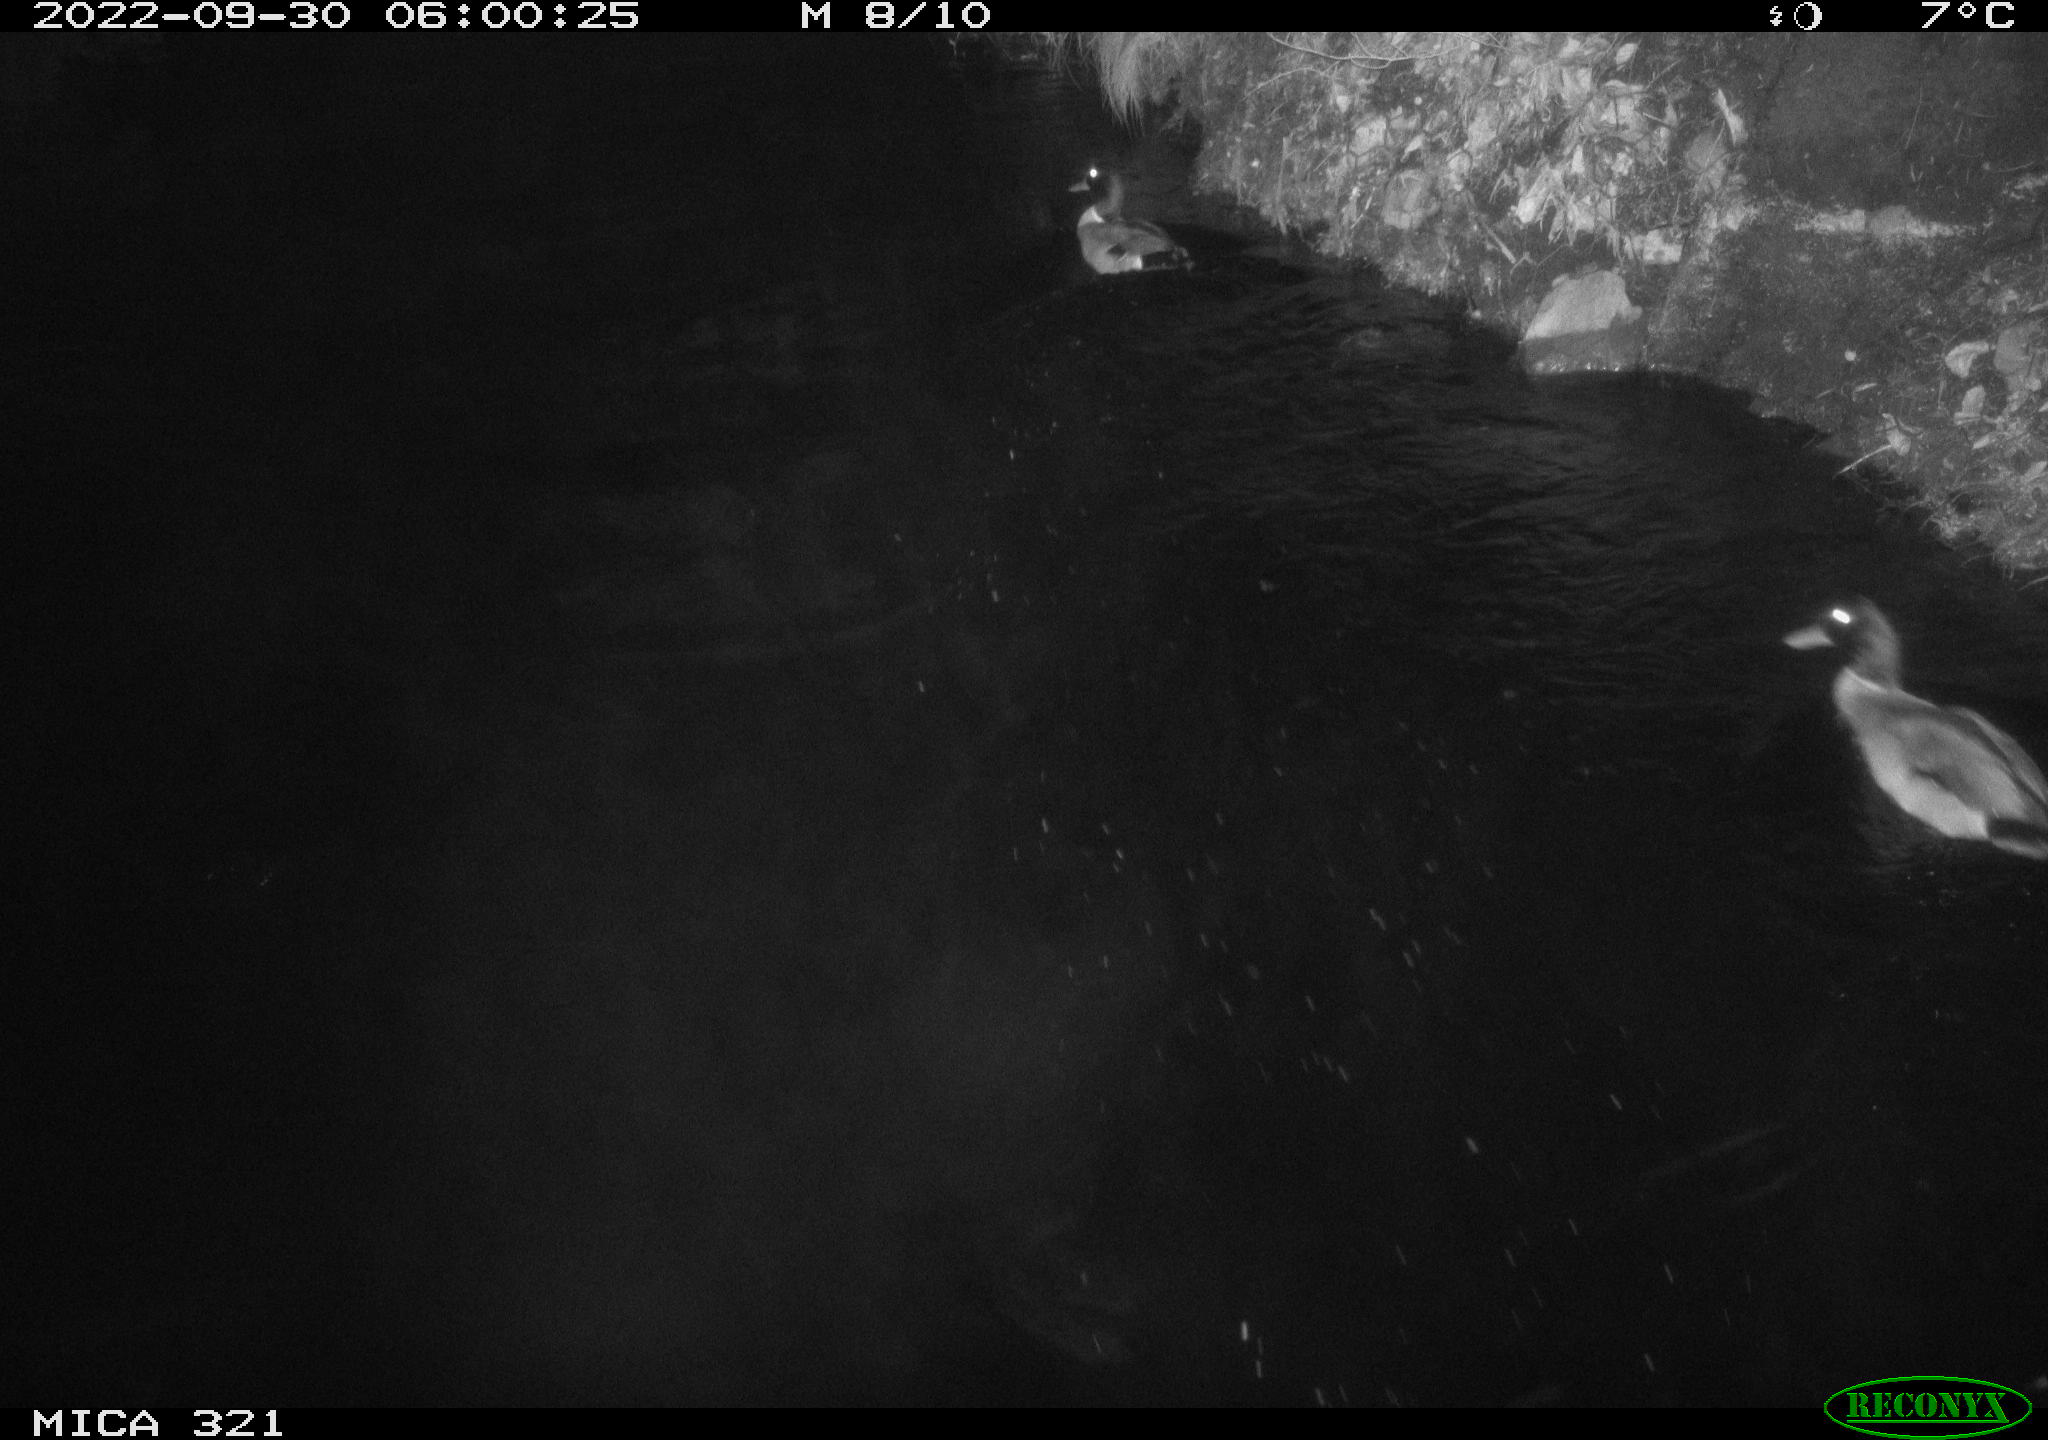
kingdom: Animalia
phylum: Chordata
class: Aves
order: Anseriformes
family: Anatidae
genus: Anas
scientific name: Anas
